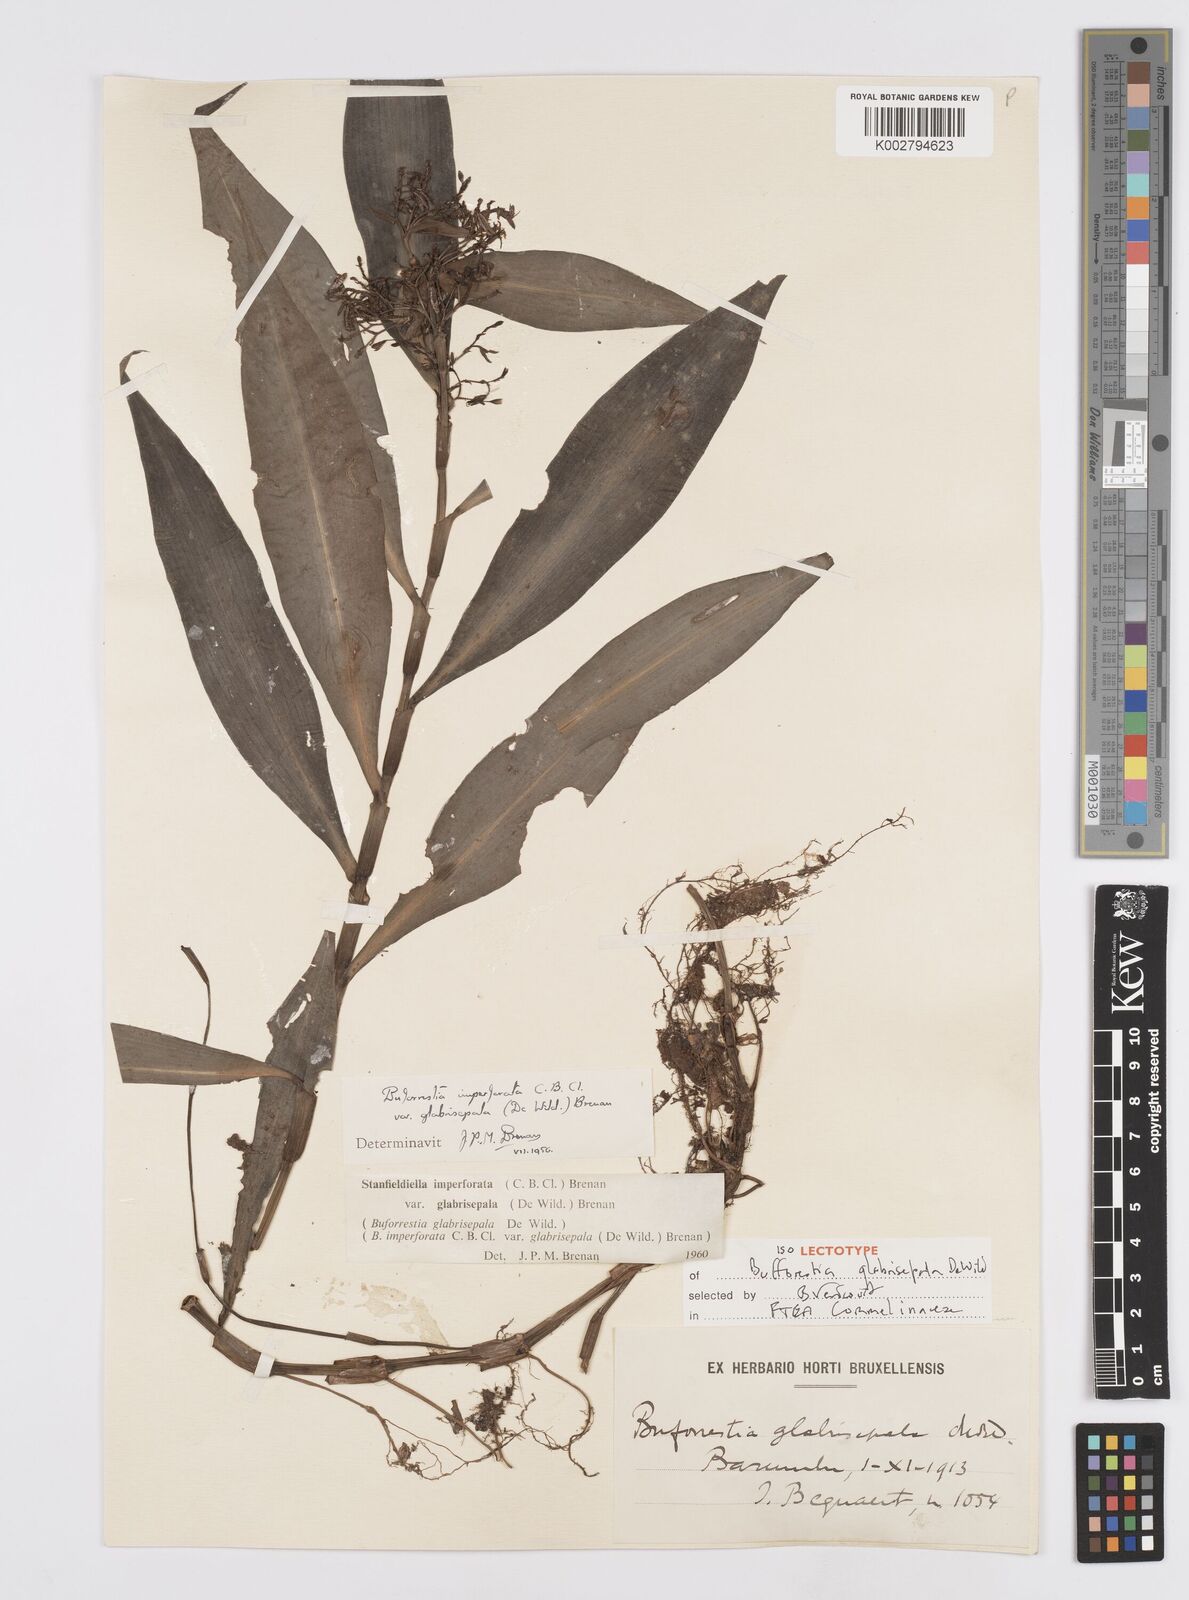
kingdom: Plantae
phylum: Tracheophyta
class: Liliopsida
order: Commelinales
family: Commelinaceae
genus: Stanfieldiella
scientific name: Stanfieldiella imperforata
